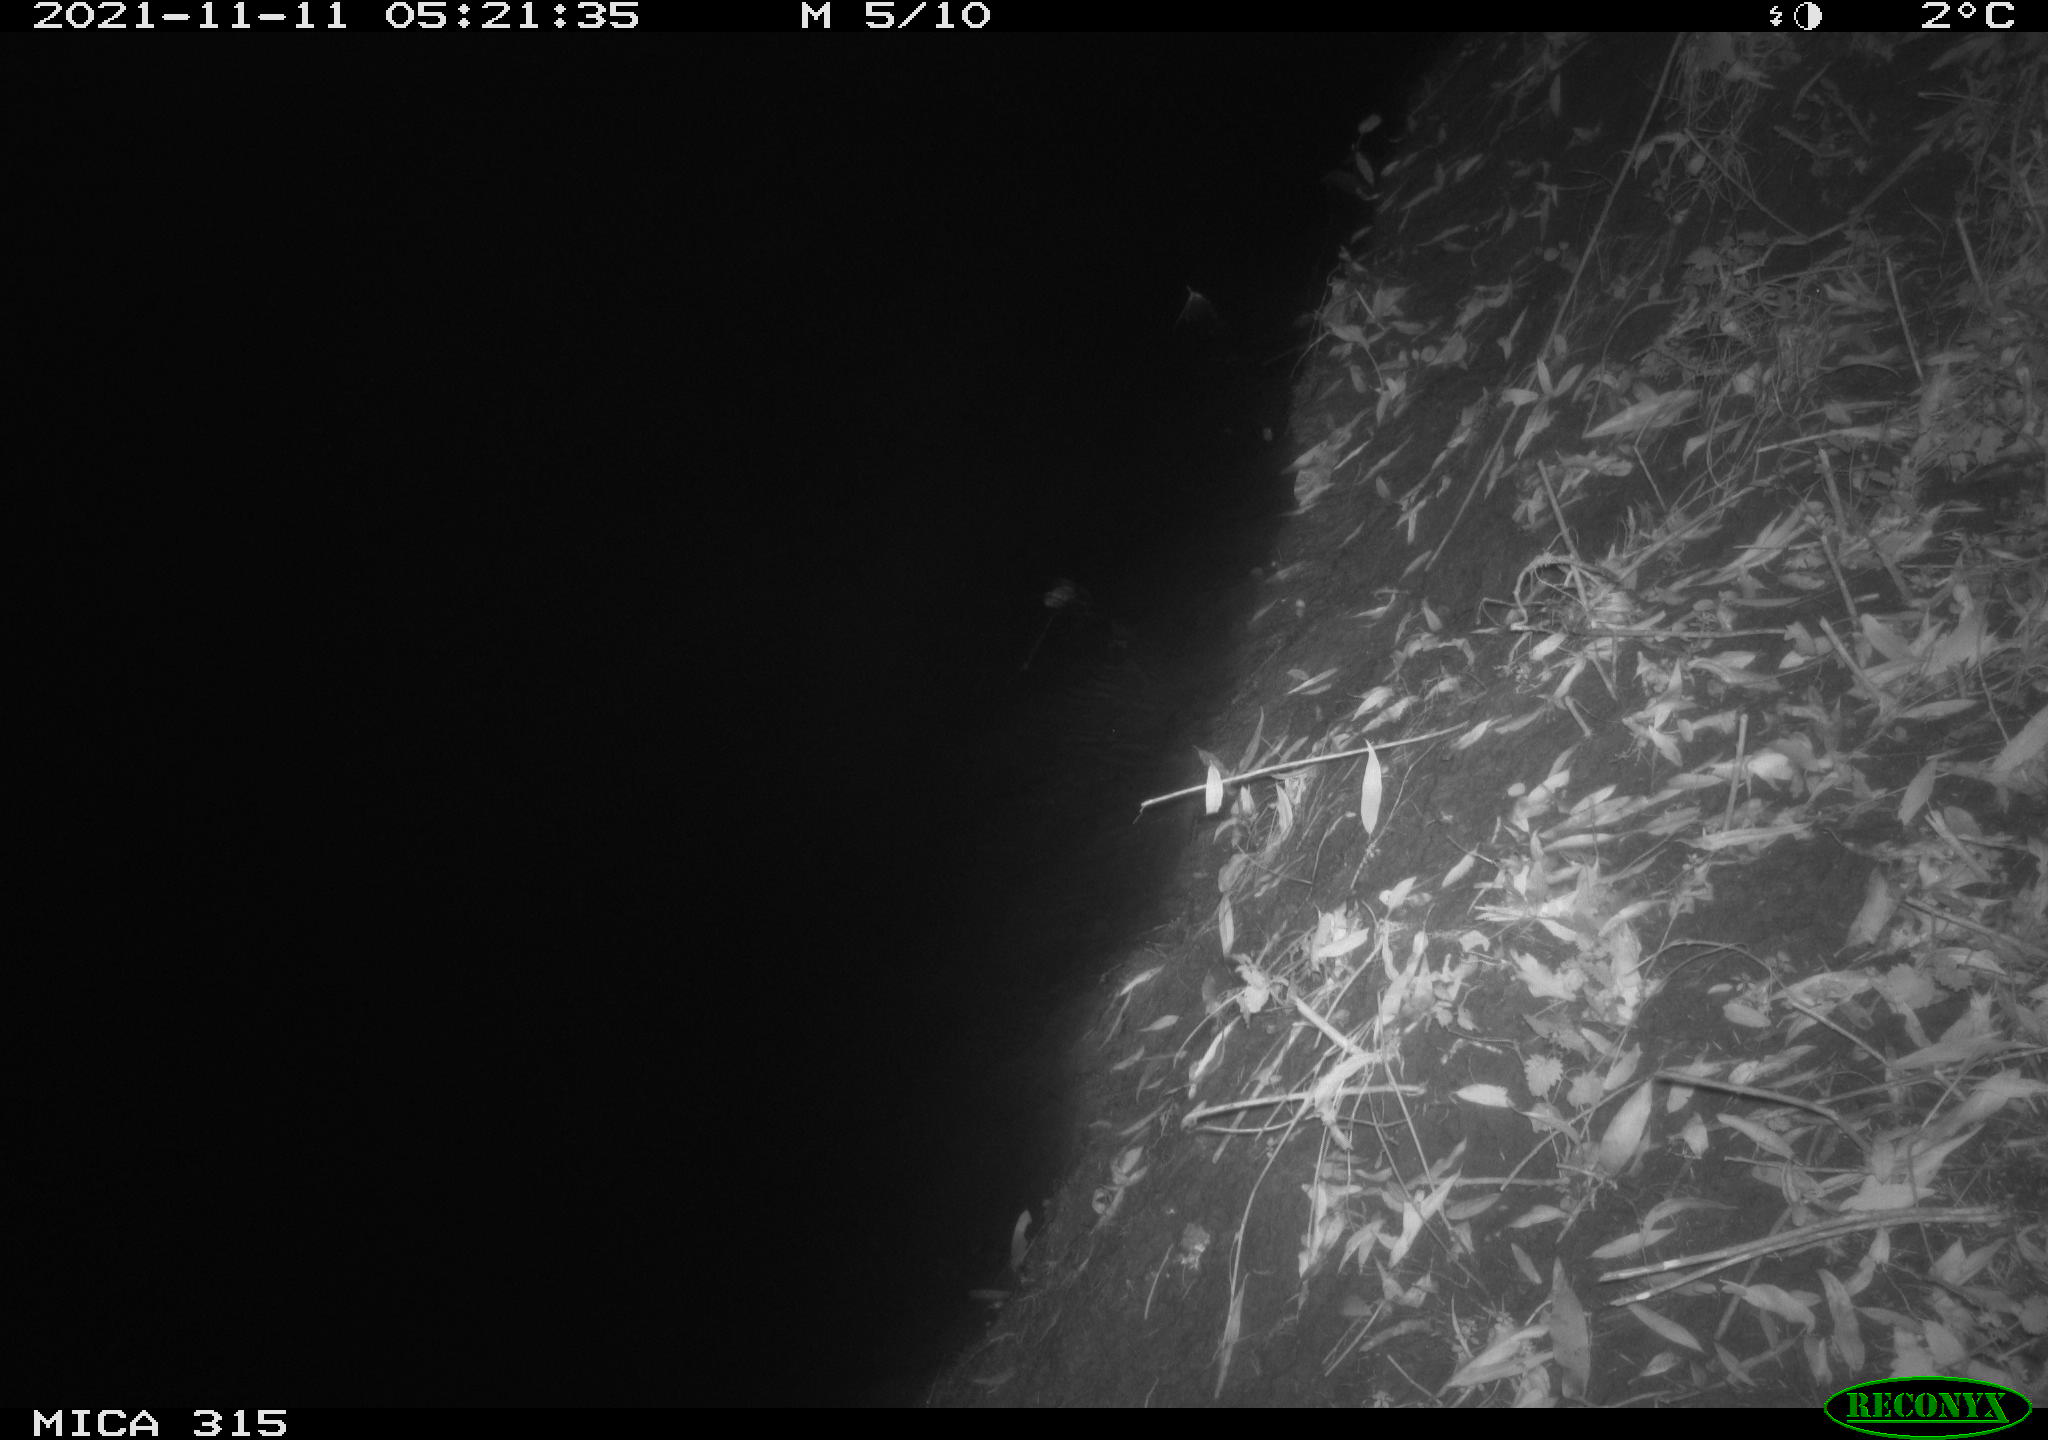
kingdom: Animalia
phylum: Chordata
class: Mammalia
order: Rodentia
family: Cricetidae
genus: Myodes
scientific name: Myodes glareolus
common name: Bank vole
